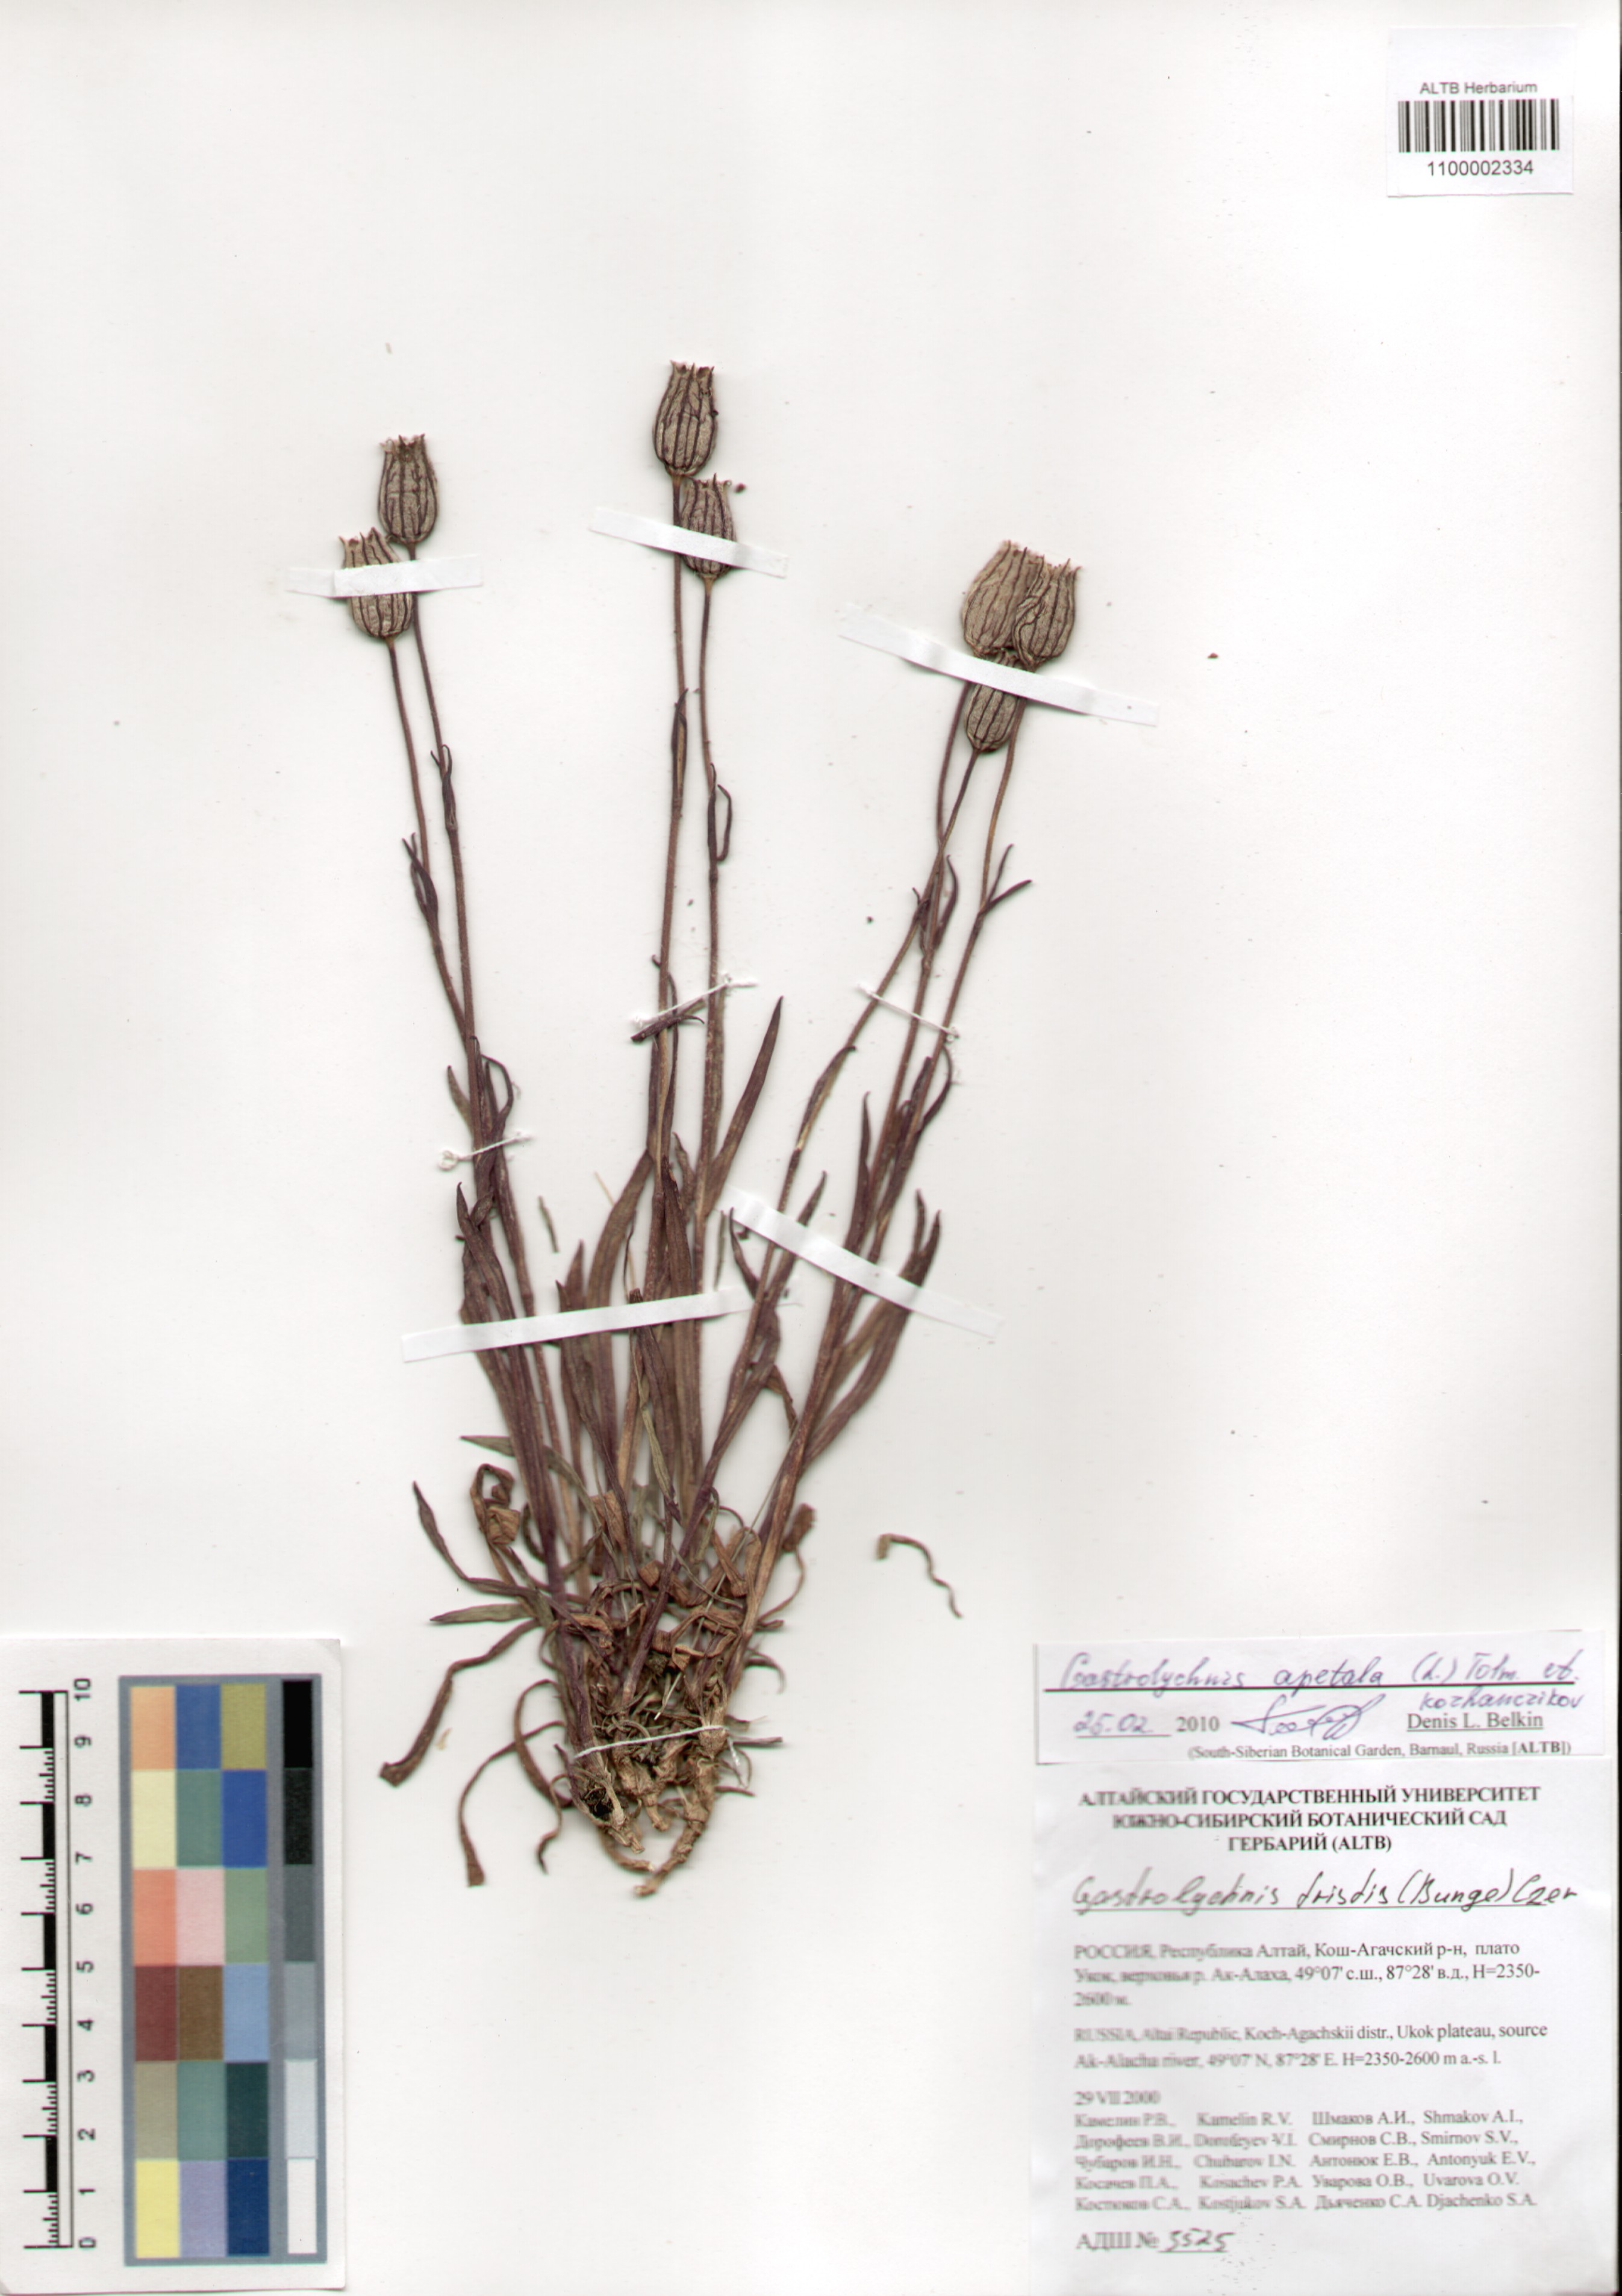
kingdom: Plantae
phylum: Tracheophyta
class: Magnoliopsida
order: Caryophyllales
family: Caryophyllaceae
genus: Silene
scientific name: Silene wahlbergella
